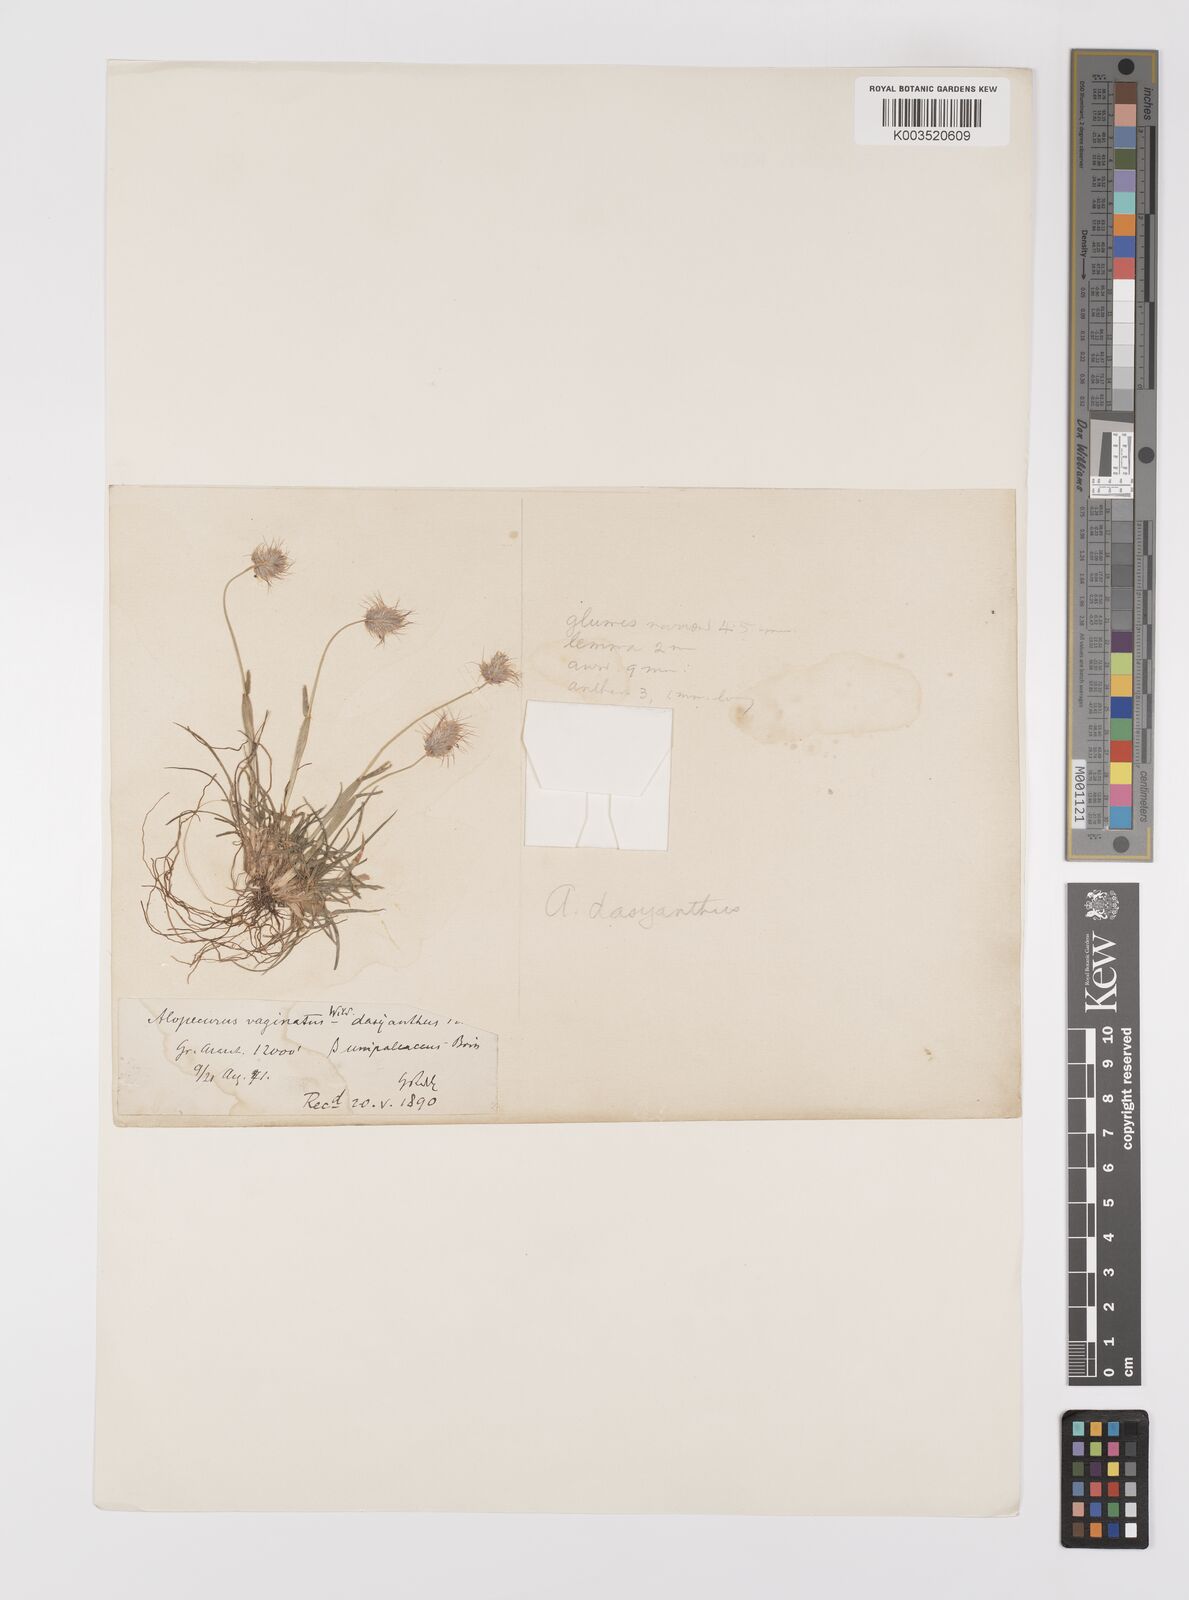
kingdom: Plantae
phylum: Tracheophyta
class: Liliopsida
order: Poales
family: Poaceae
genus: Alopecurus
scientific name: Alopecurus dasyanthus
